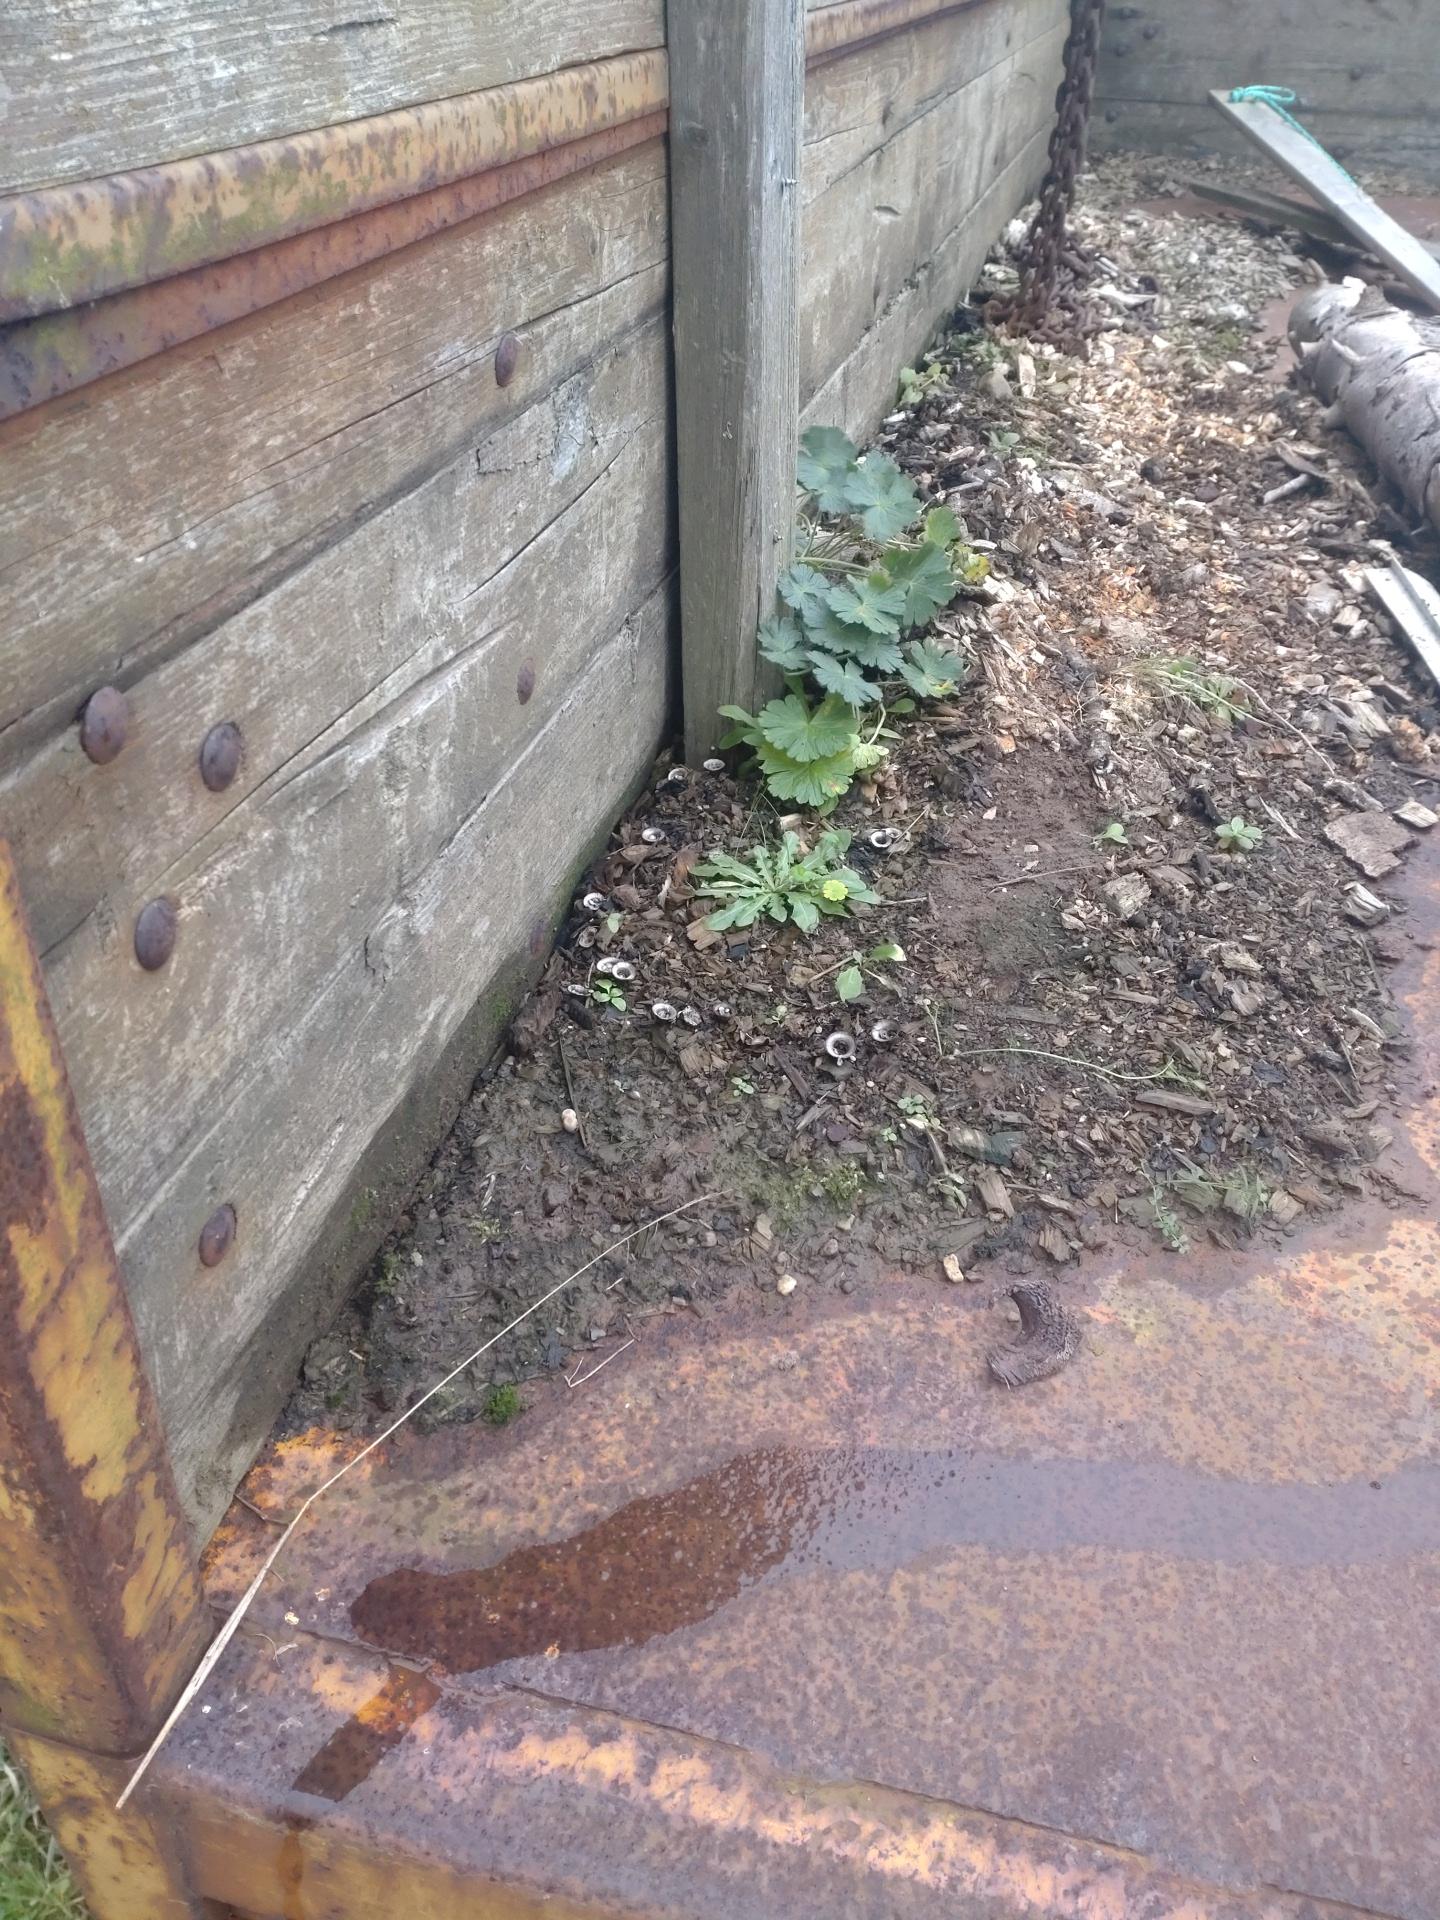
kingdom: Fungi
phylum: Basidiomycota
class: Agaricomycetes
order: Agaricales
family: Agaricaceae
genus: Cyathus
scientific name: Cyathus olla
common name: klokke-redesvamp
